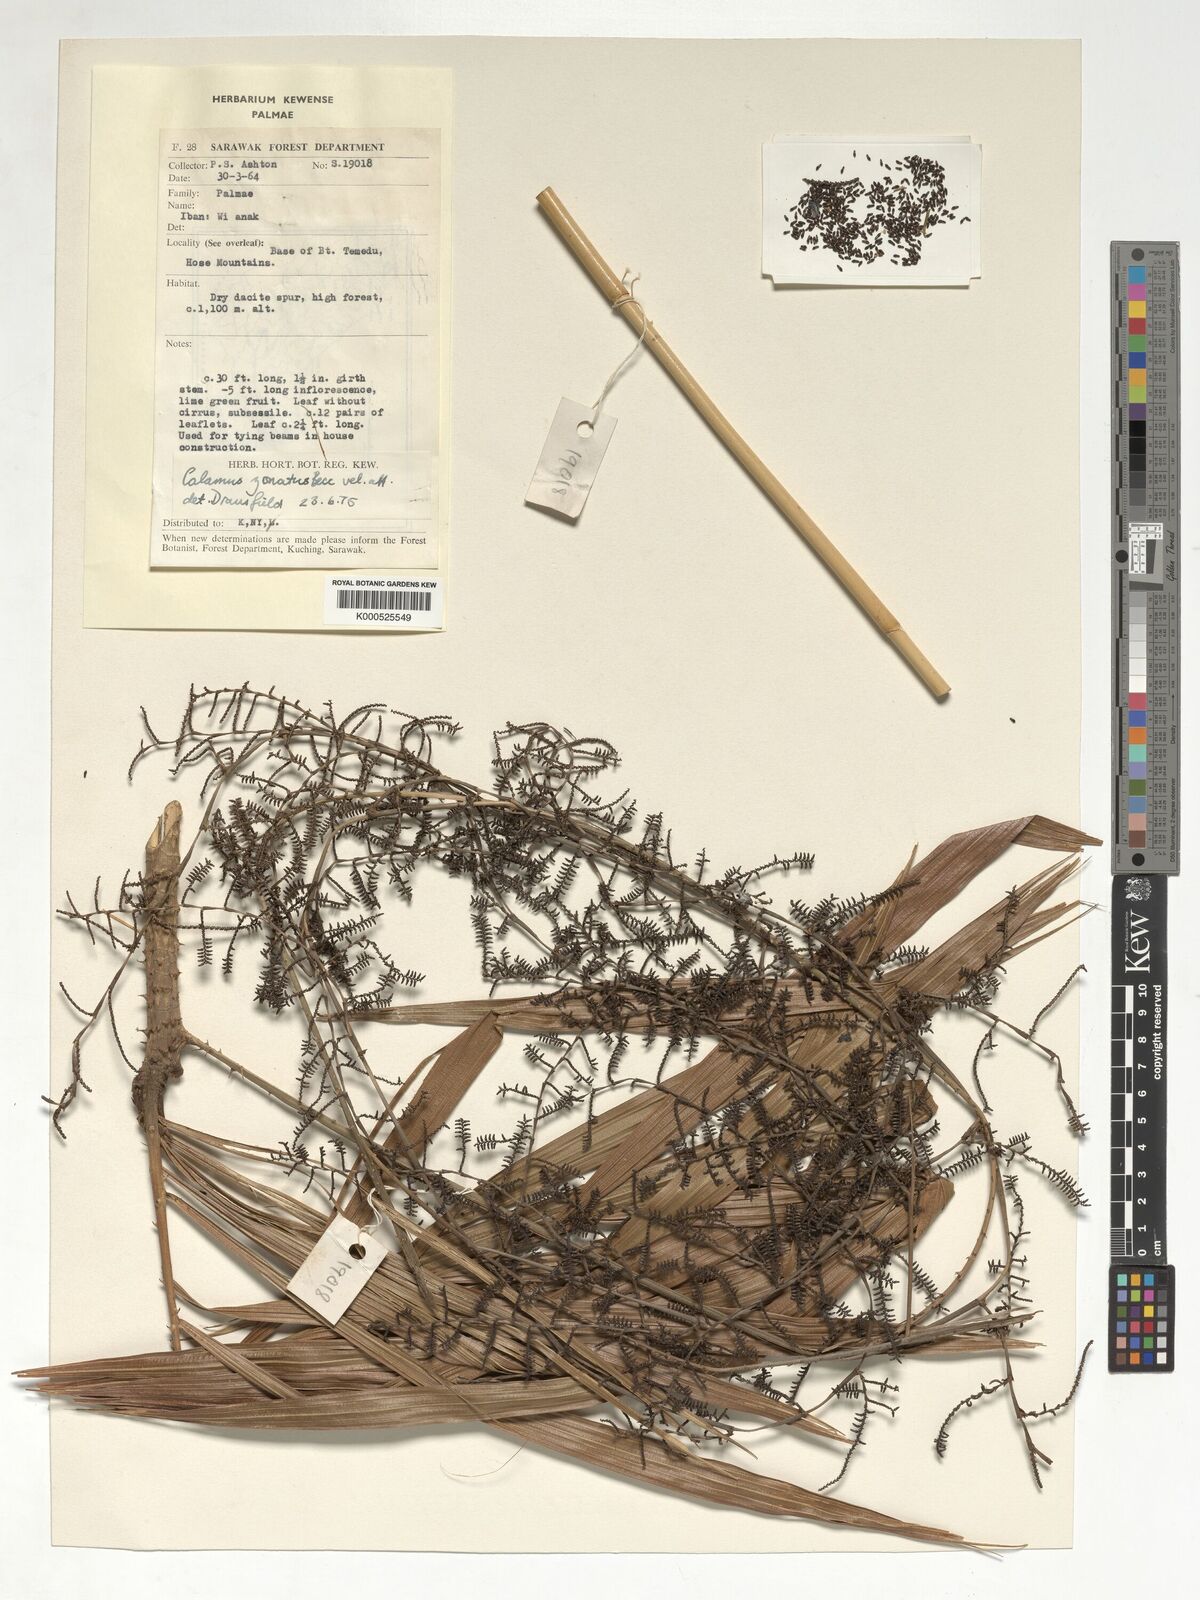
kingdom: Plantae
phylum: Tracheophyta
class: Liliopsida
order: Arecales
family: Arecaceae
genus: Calamus
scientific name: Calamus zonatus
